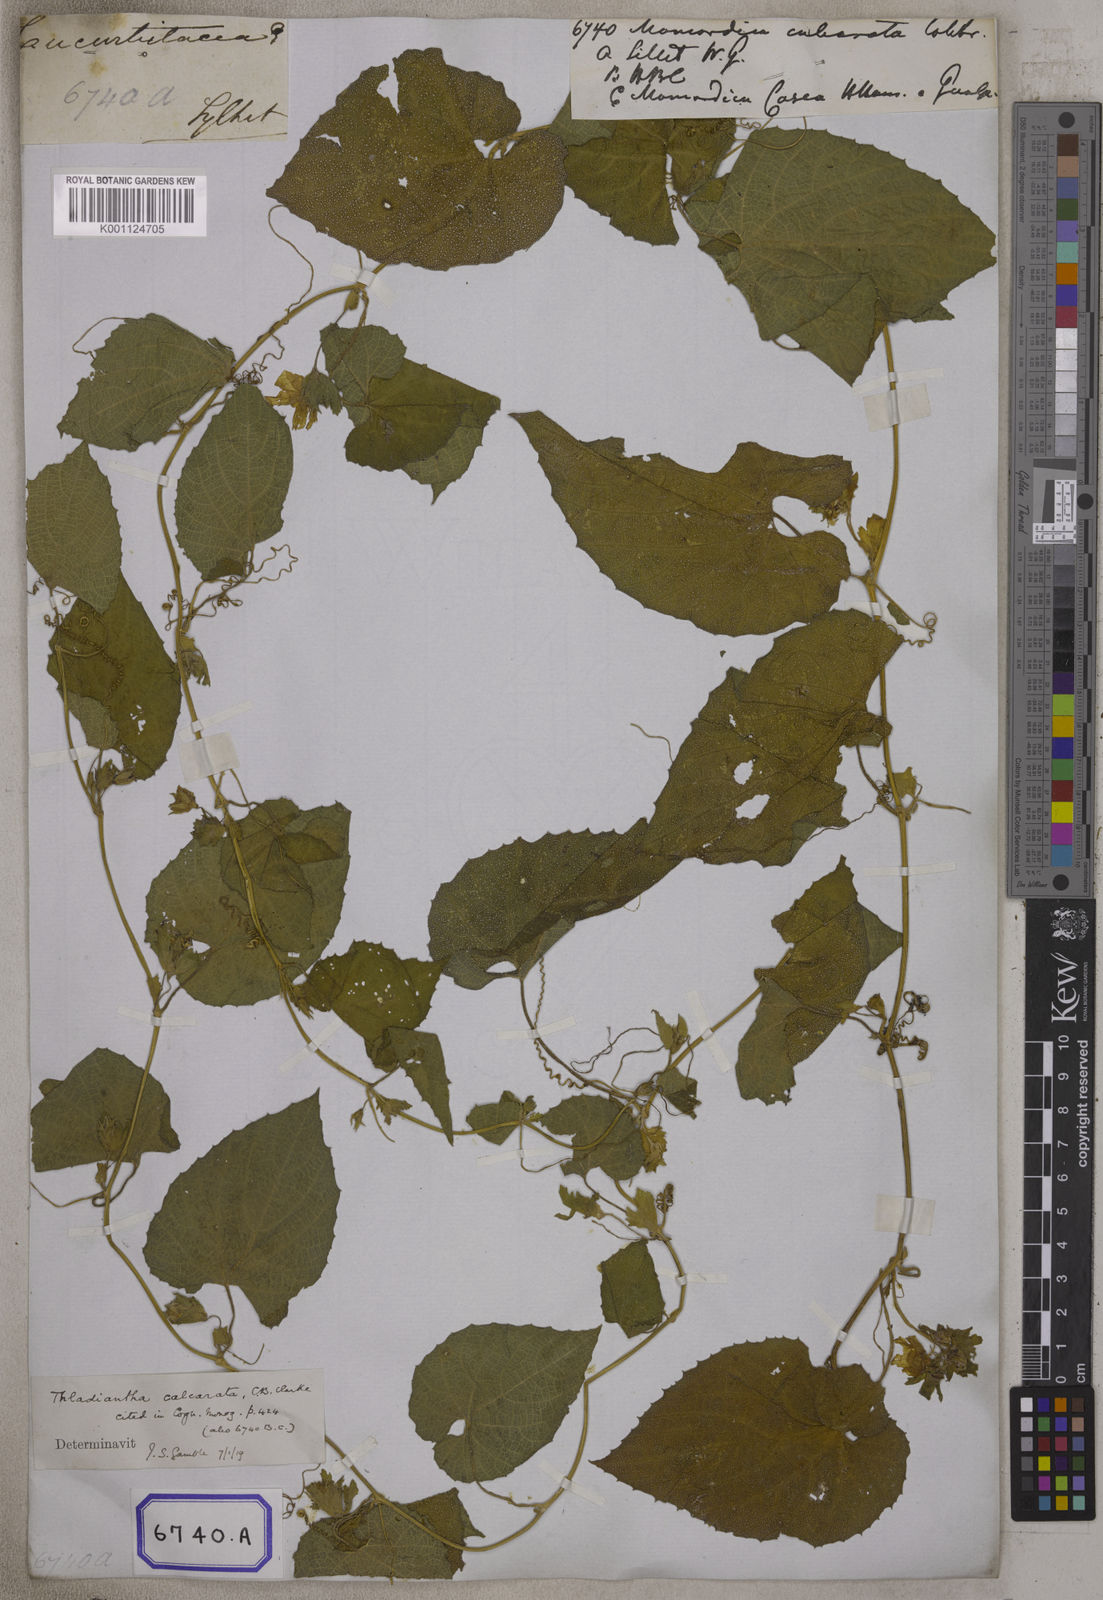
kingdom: Plantae
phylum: Tracheophyta
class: Magnoliopsida
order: Cucurbitales
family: Cucurbitaceae
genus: Thladiantha
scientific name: Thladiantha cordifolia
